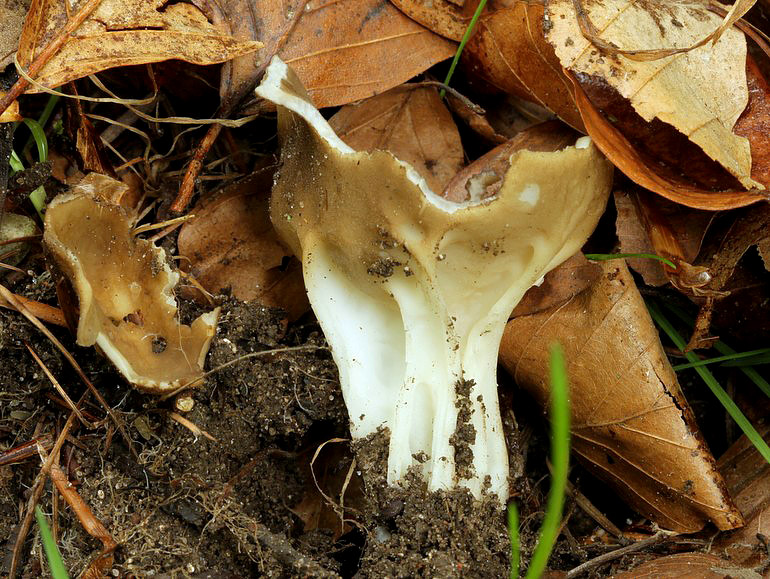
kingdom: Fungi
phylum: Ascomycota
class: Pezizomycetes
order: Pezizales
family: Helvellaceae
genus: Helvella
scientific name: Helvella acetabulum
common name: pokal-foldhat
